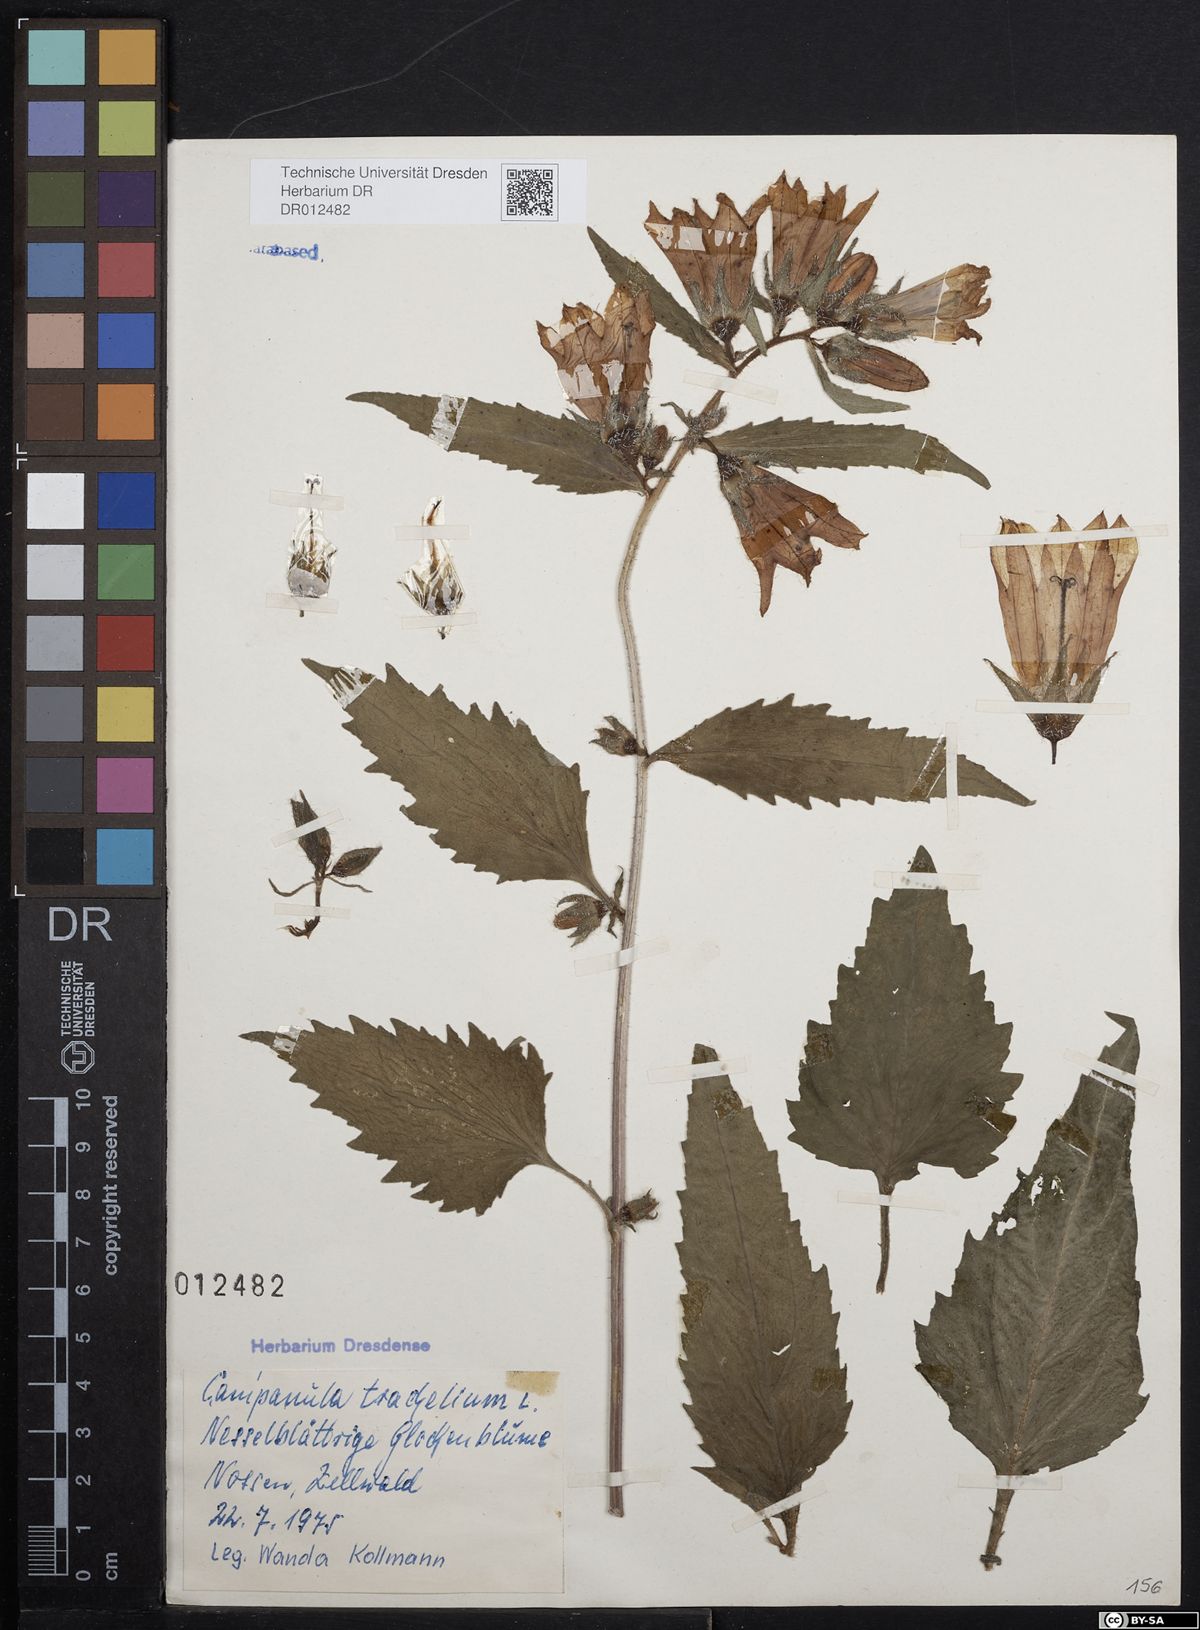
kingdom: Plantae
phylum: Tracheophyta
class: Magnoliopsida
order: Asterales
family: Campanulaceae
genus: Campanula
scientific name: Campanula trachelium
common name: Nettle-leaved bellflower
